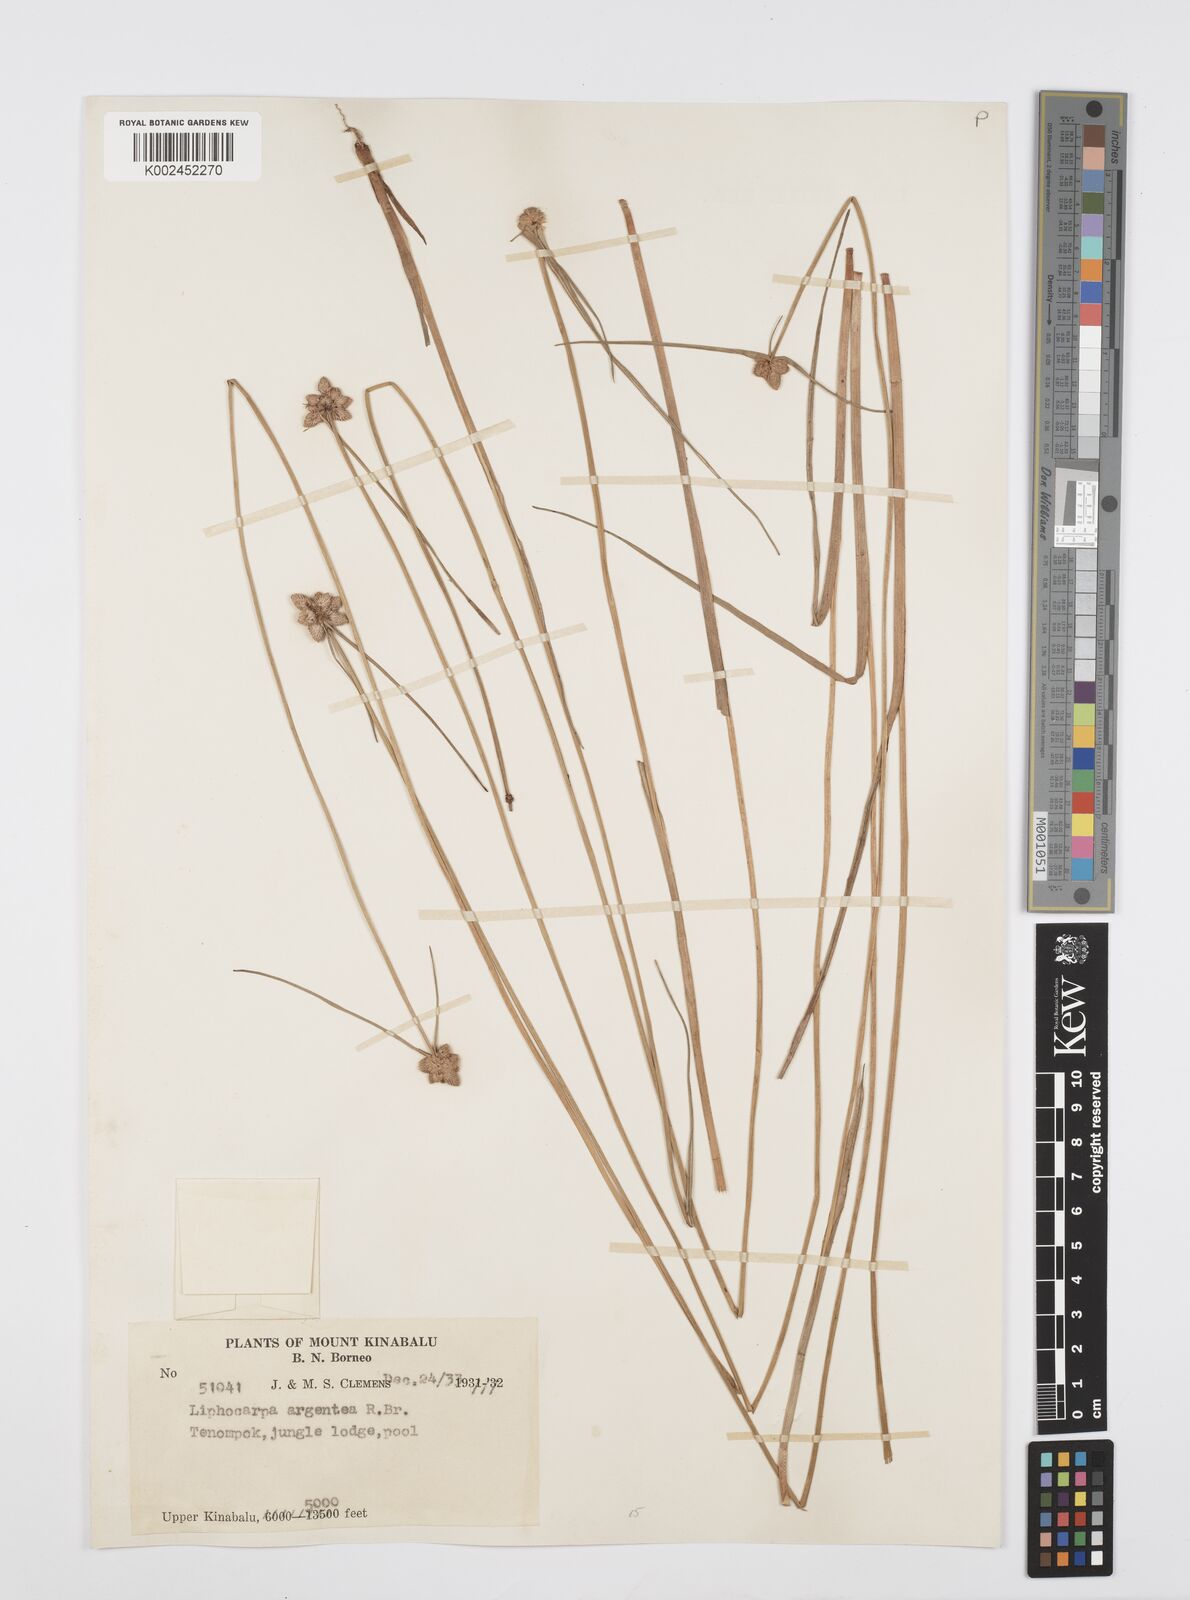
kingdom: Plantae
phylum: Tracheophyta
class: Liliopsida
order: Poales
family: Cyperaceae
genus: Cyperus
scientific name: Cyperus
